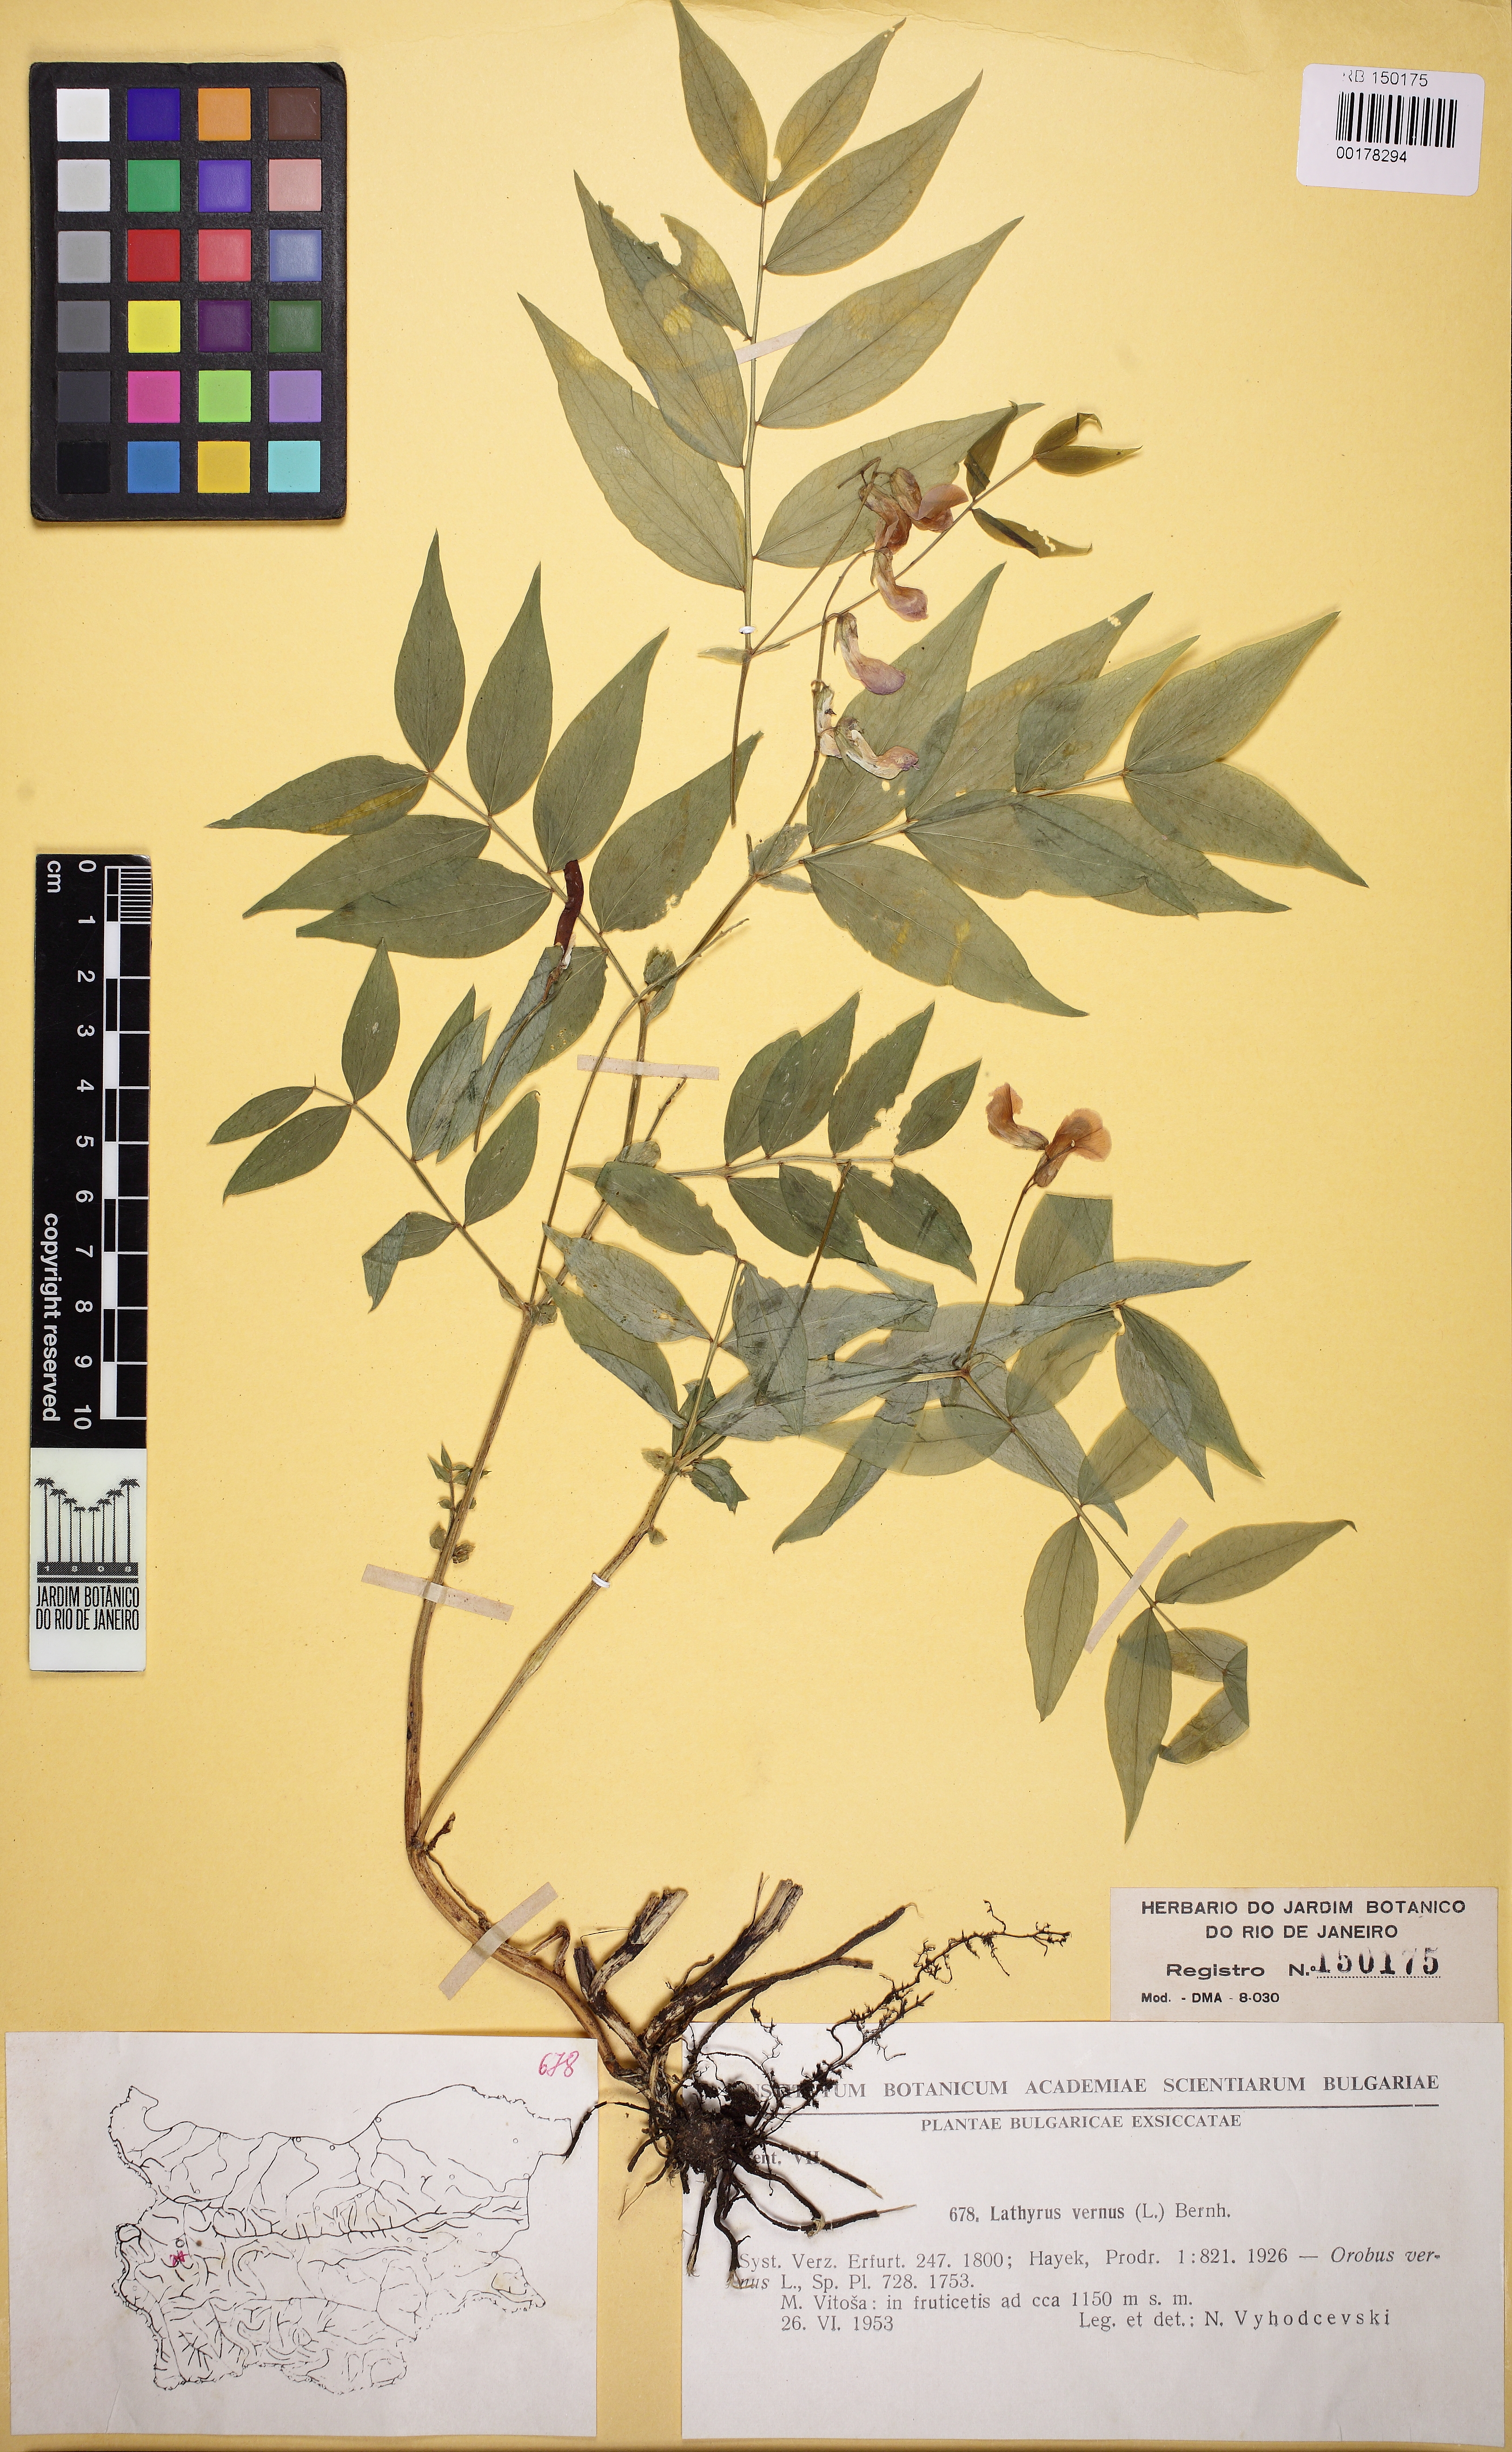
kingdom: Plantae
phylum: Tracheophyta
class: Magnoliopsida
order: Fabales
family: Fabaceae
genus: Lathyrus
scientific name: Lathyrus
